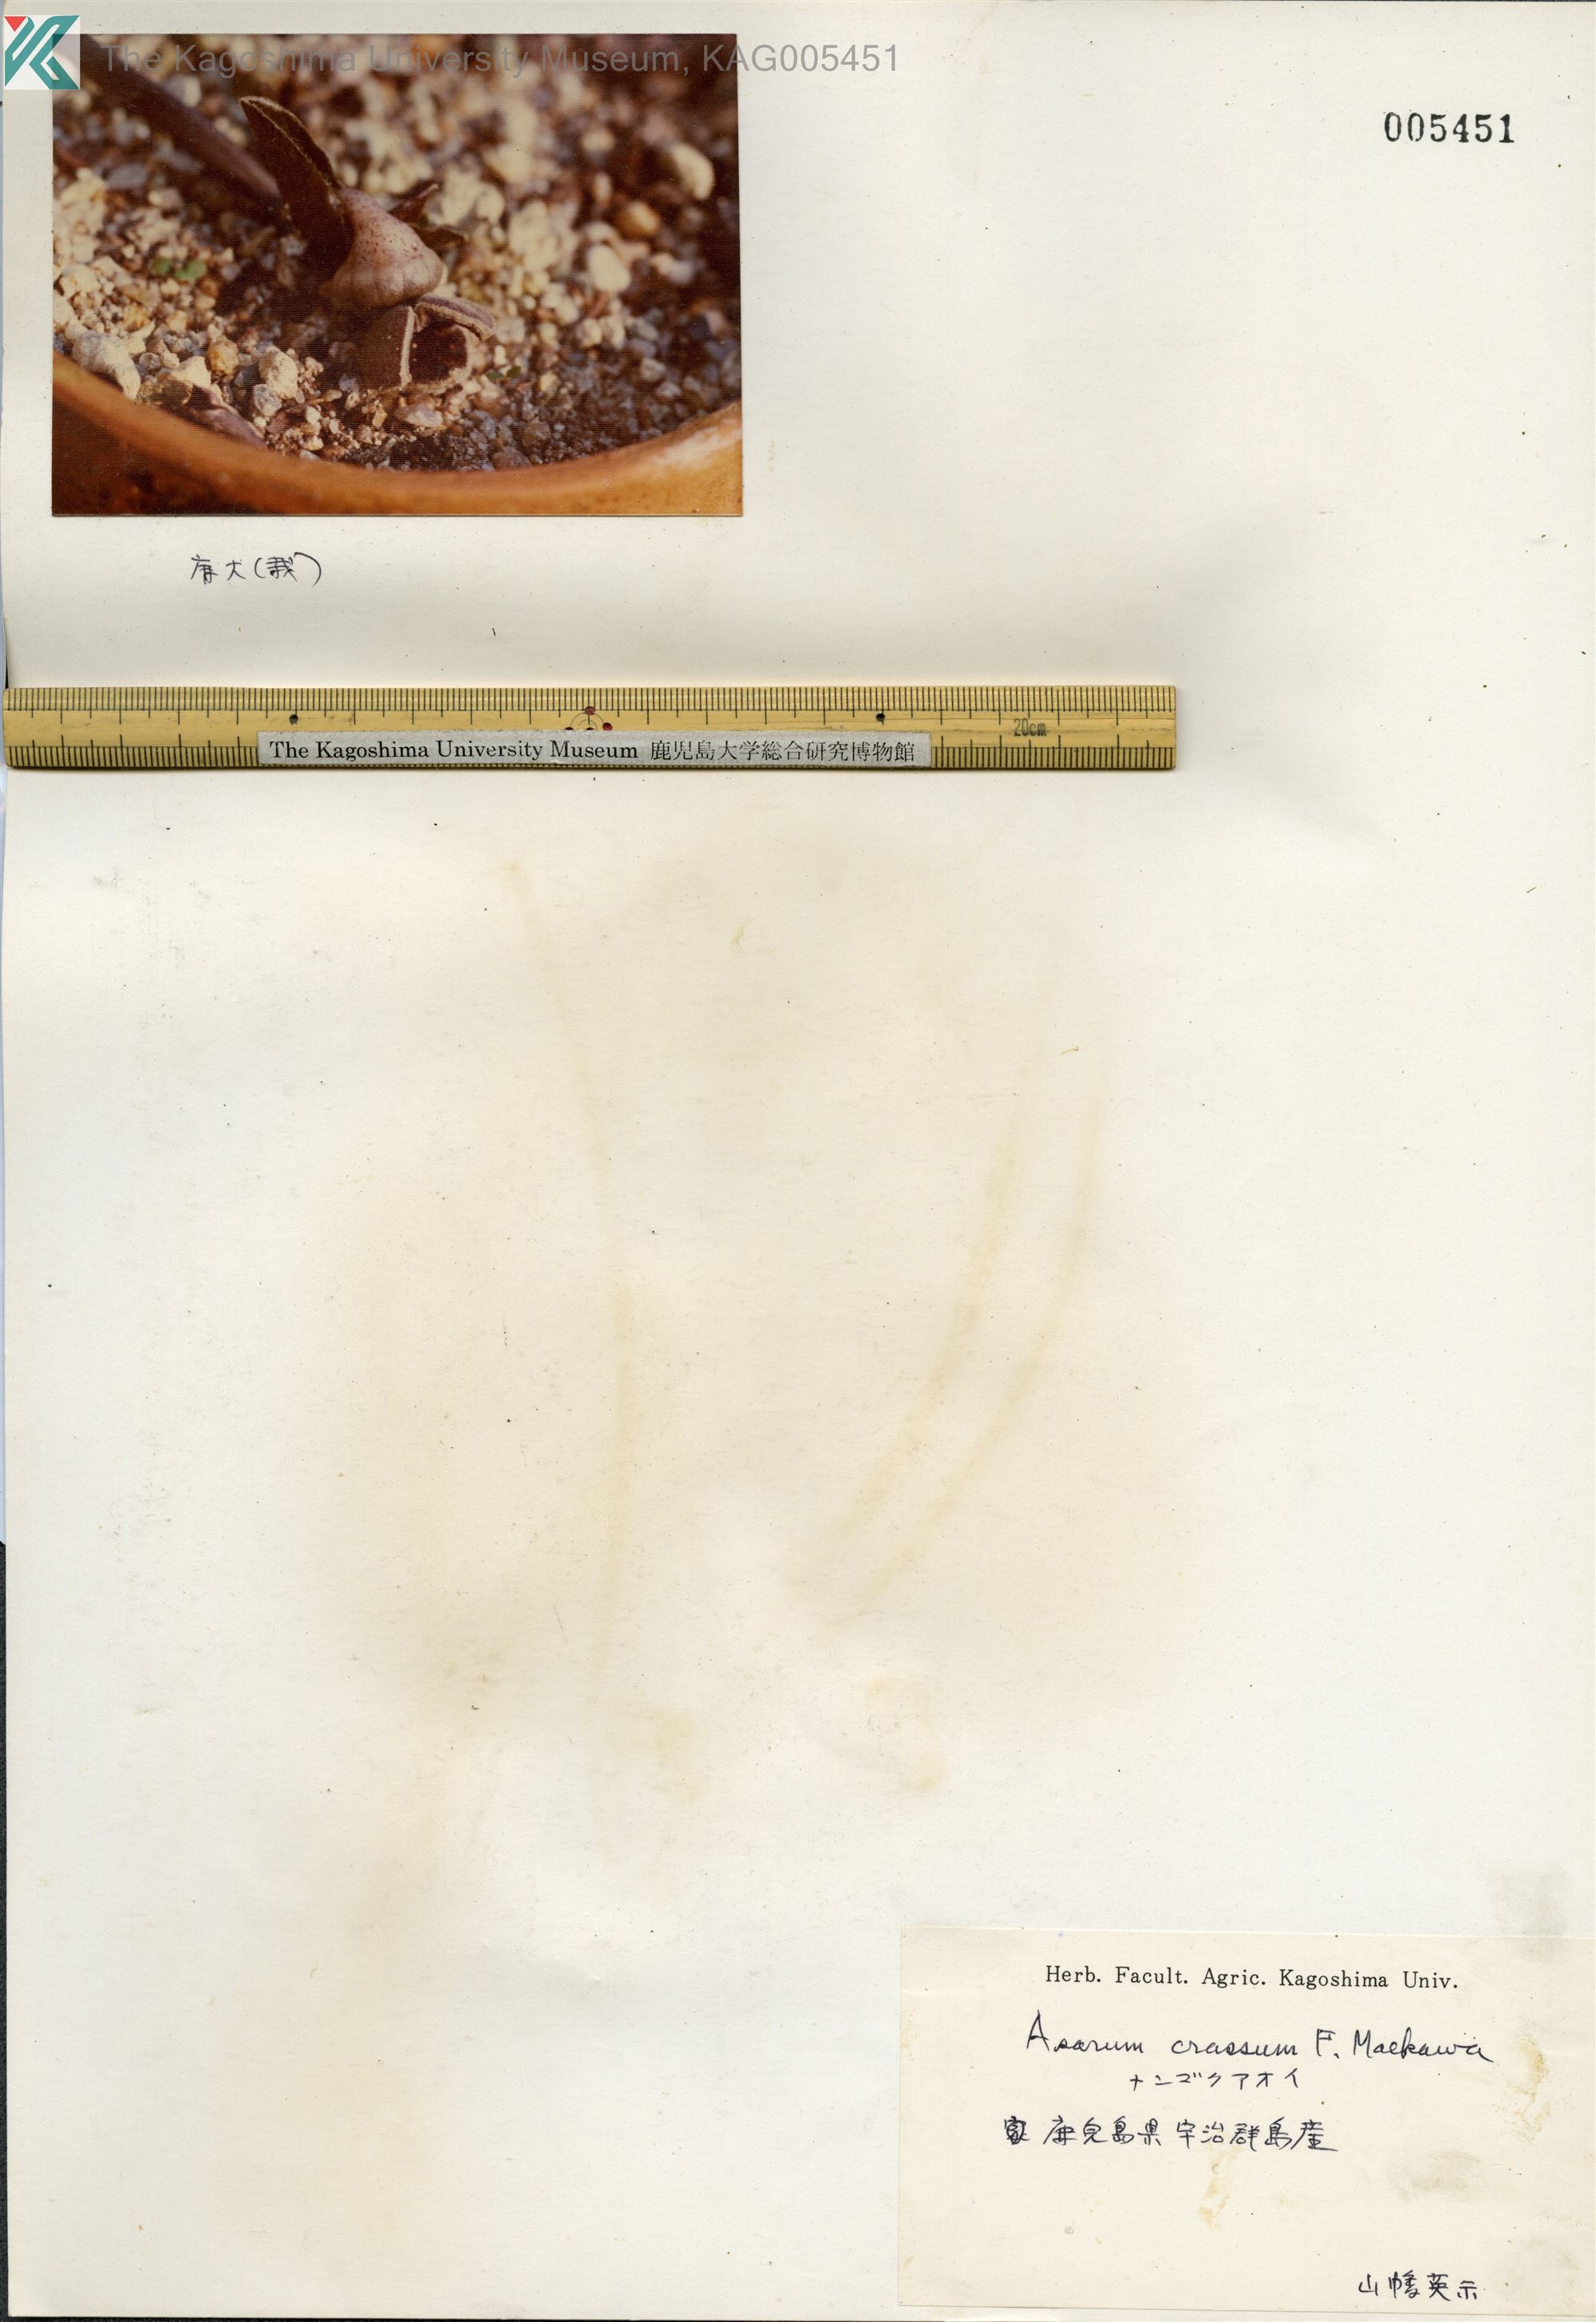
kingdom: Plantae
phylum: Tracheophyta
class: Magnoliopsida
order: Piperales
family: Aristolochiaceae
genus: Asarum
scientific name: Asarum crassum
